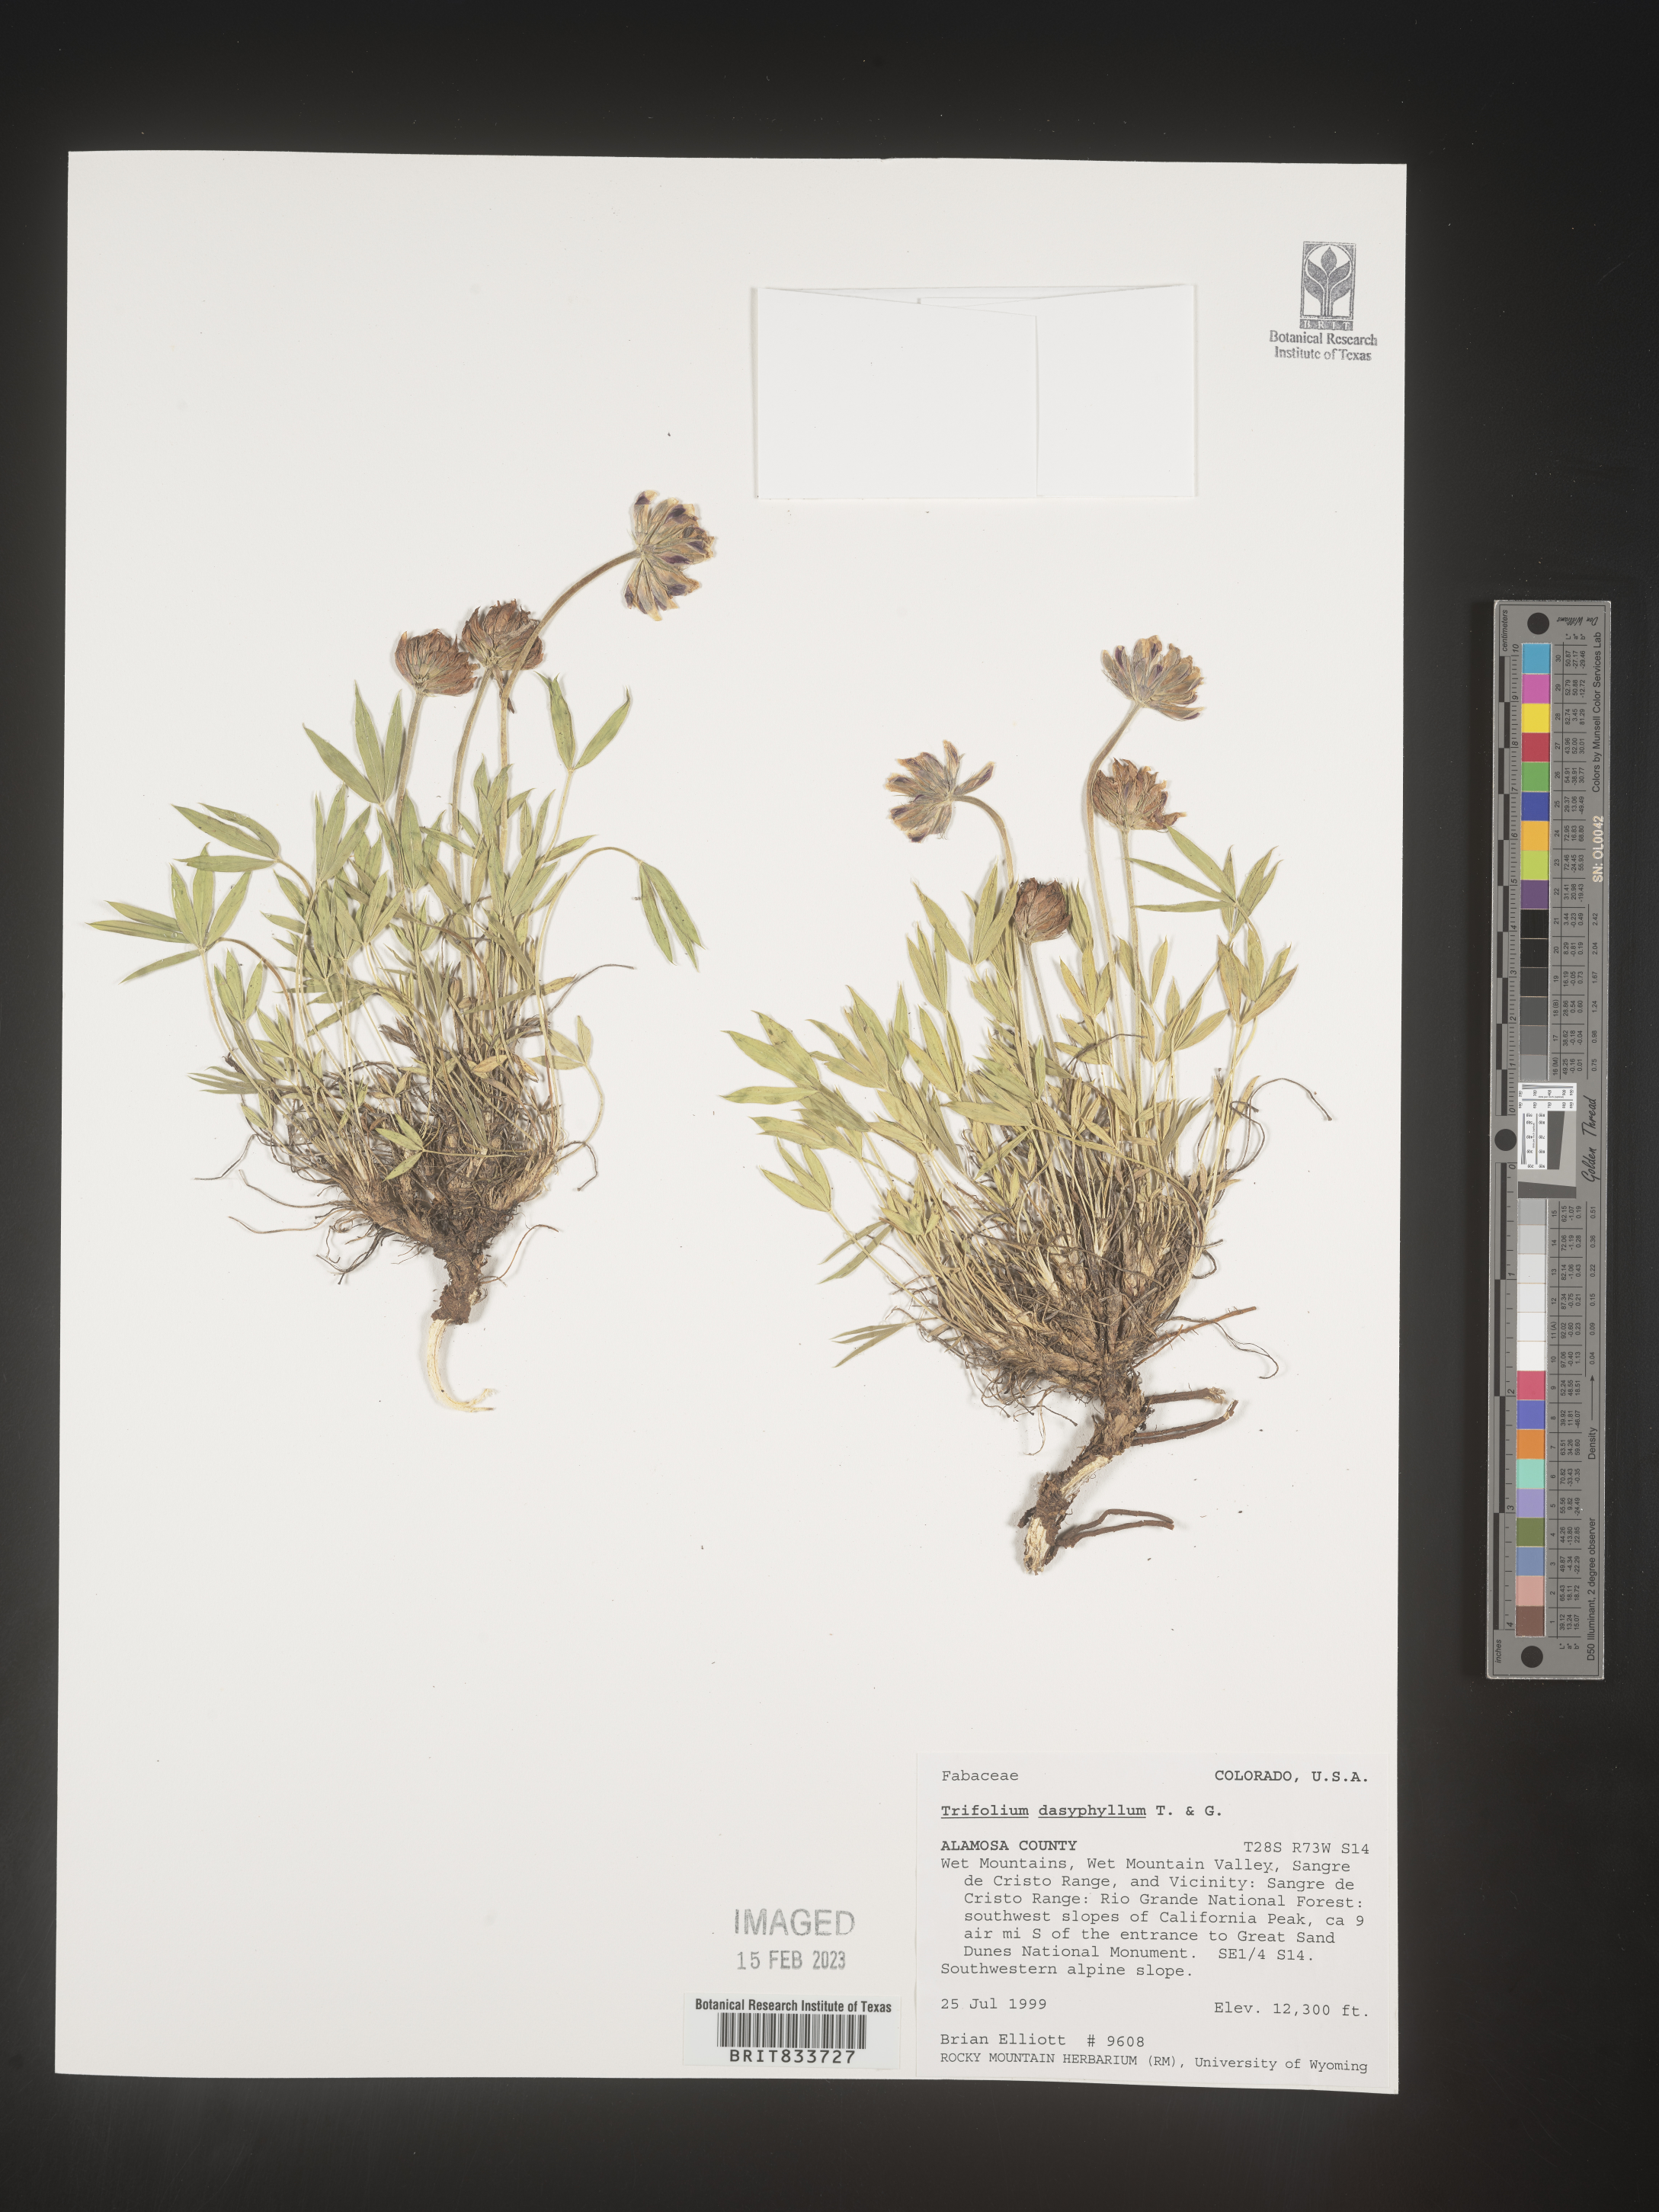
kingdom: Plantae
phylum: Tracheophyta
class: Magnoliopsida
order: Fabales
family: Fabaceae
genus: Trifolium
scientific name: Trifolium
